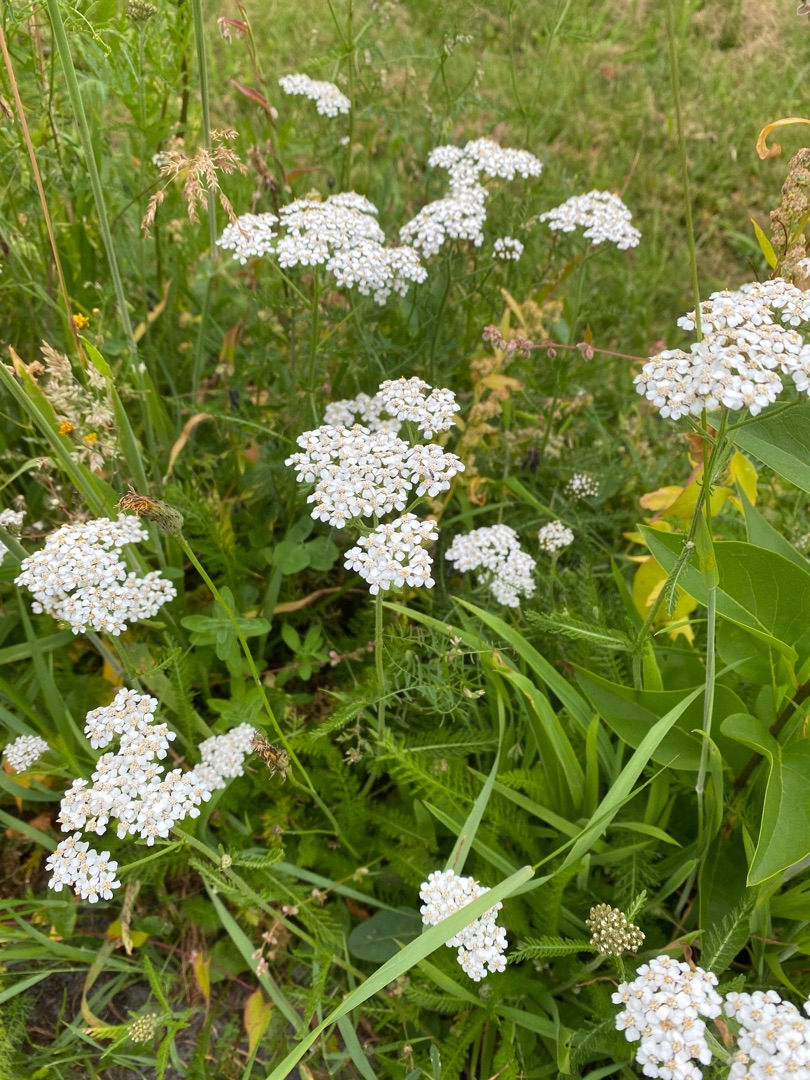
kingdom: Plantae
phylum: Tracheophyta
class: Magnoliopsida
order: Asterales
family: Asteraceae
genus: Achillea
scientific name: Achillea millefolium
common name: Almindelig røllike
